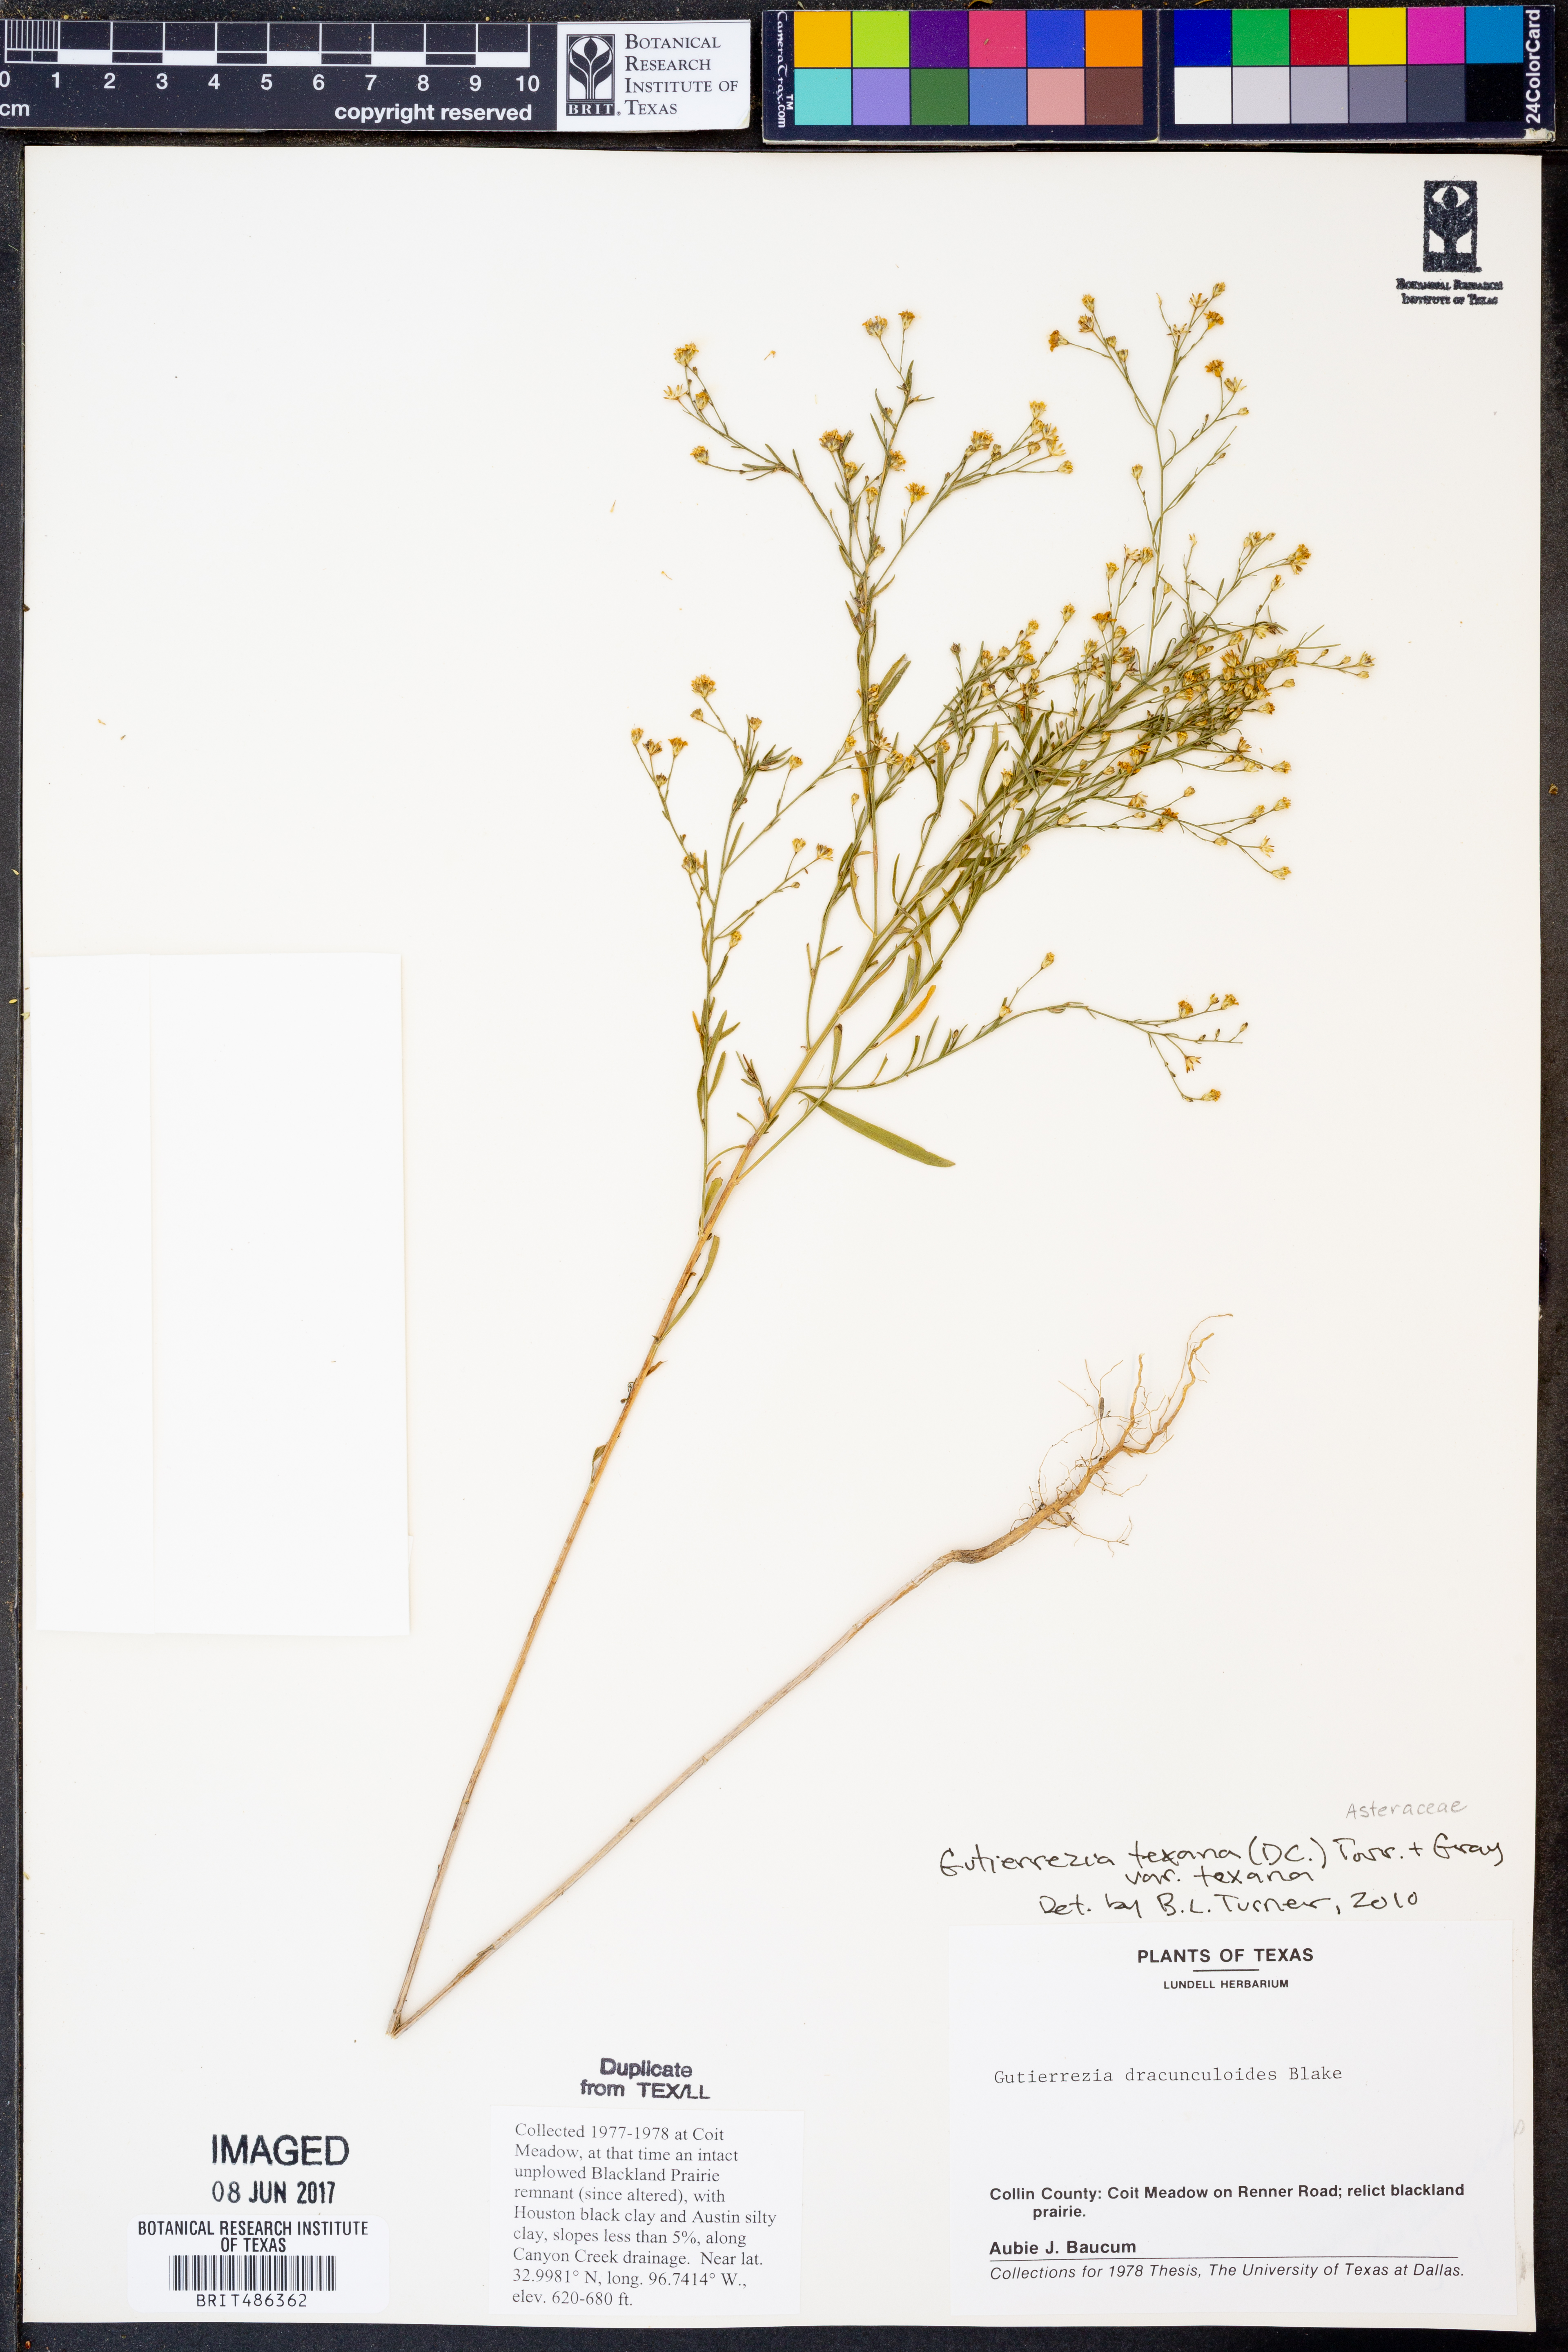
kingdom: Plantae
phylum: Tracheophyta
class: Magnoliopsida
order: Asterales
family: Asteraceae
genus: Gutierrezia
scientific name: Gutierrezia texana
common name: Texas snakeweed
